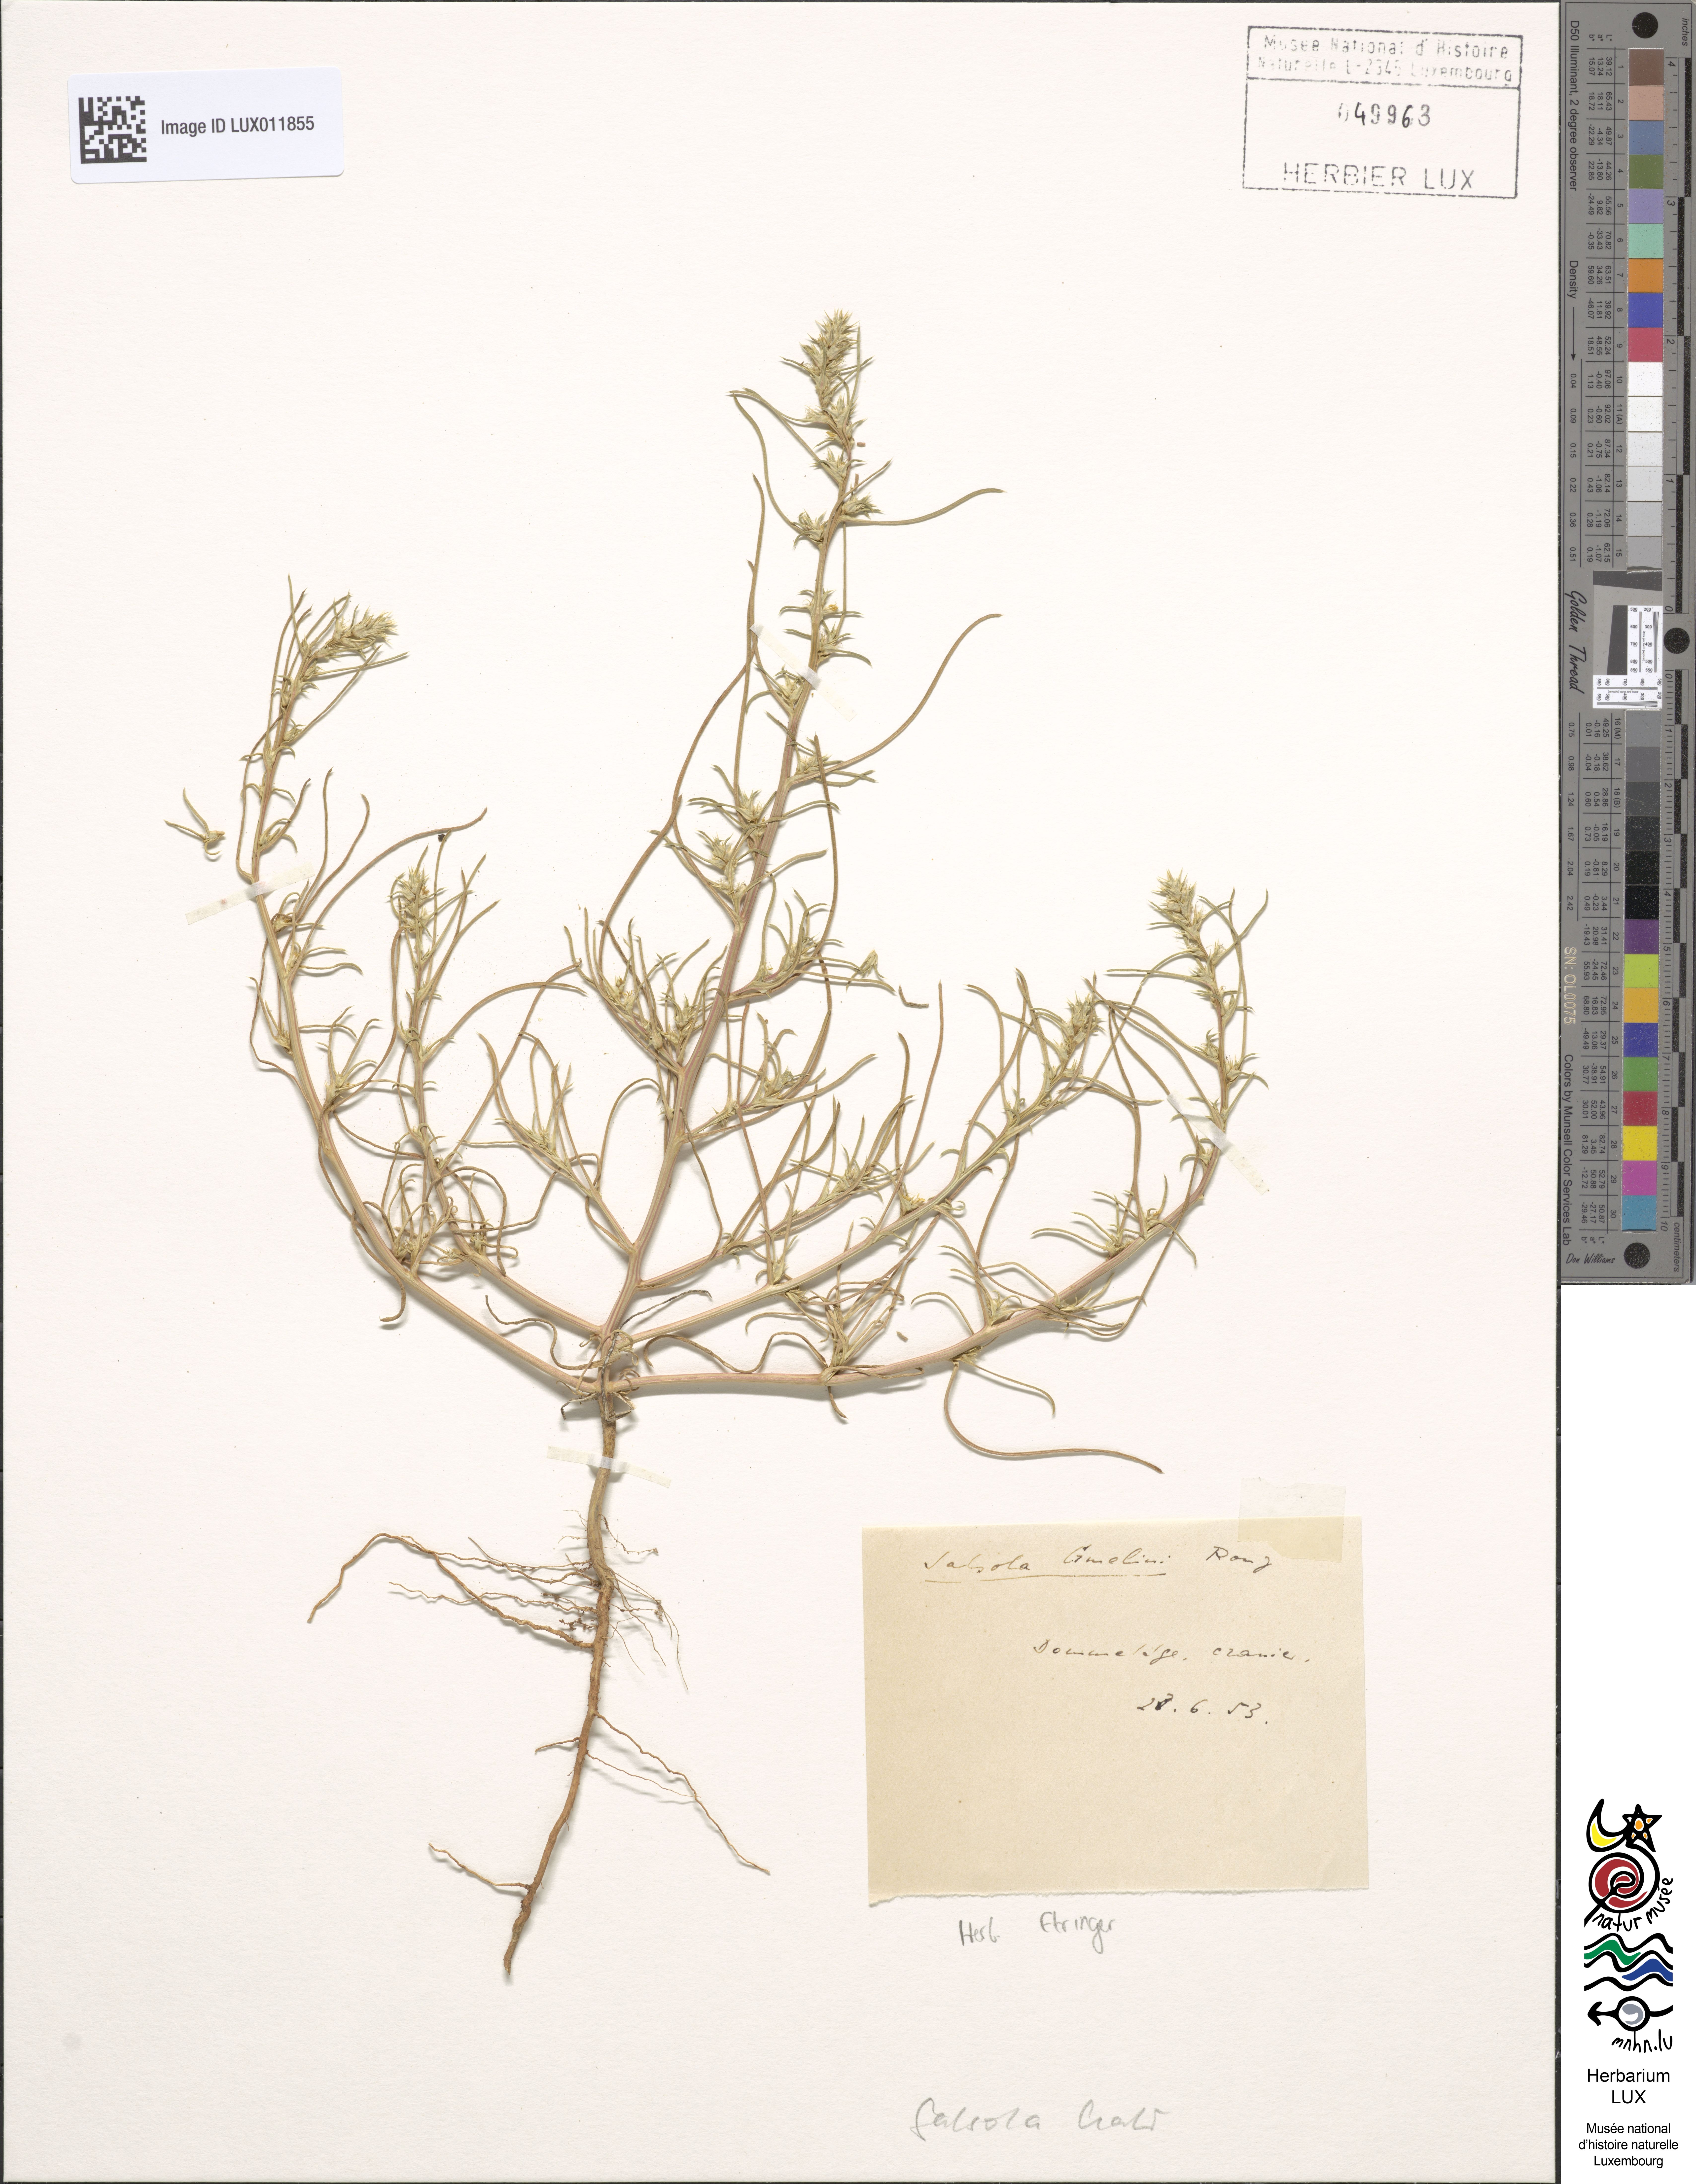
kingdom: Plantae
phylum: Tracheophyta
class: Magnoliopsida
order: Caryophyllales
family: Amaranthaceae
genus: Salsola
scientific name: Salsola kali
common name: Saltwort
